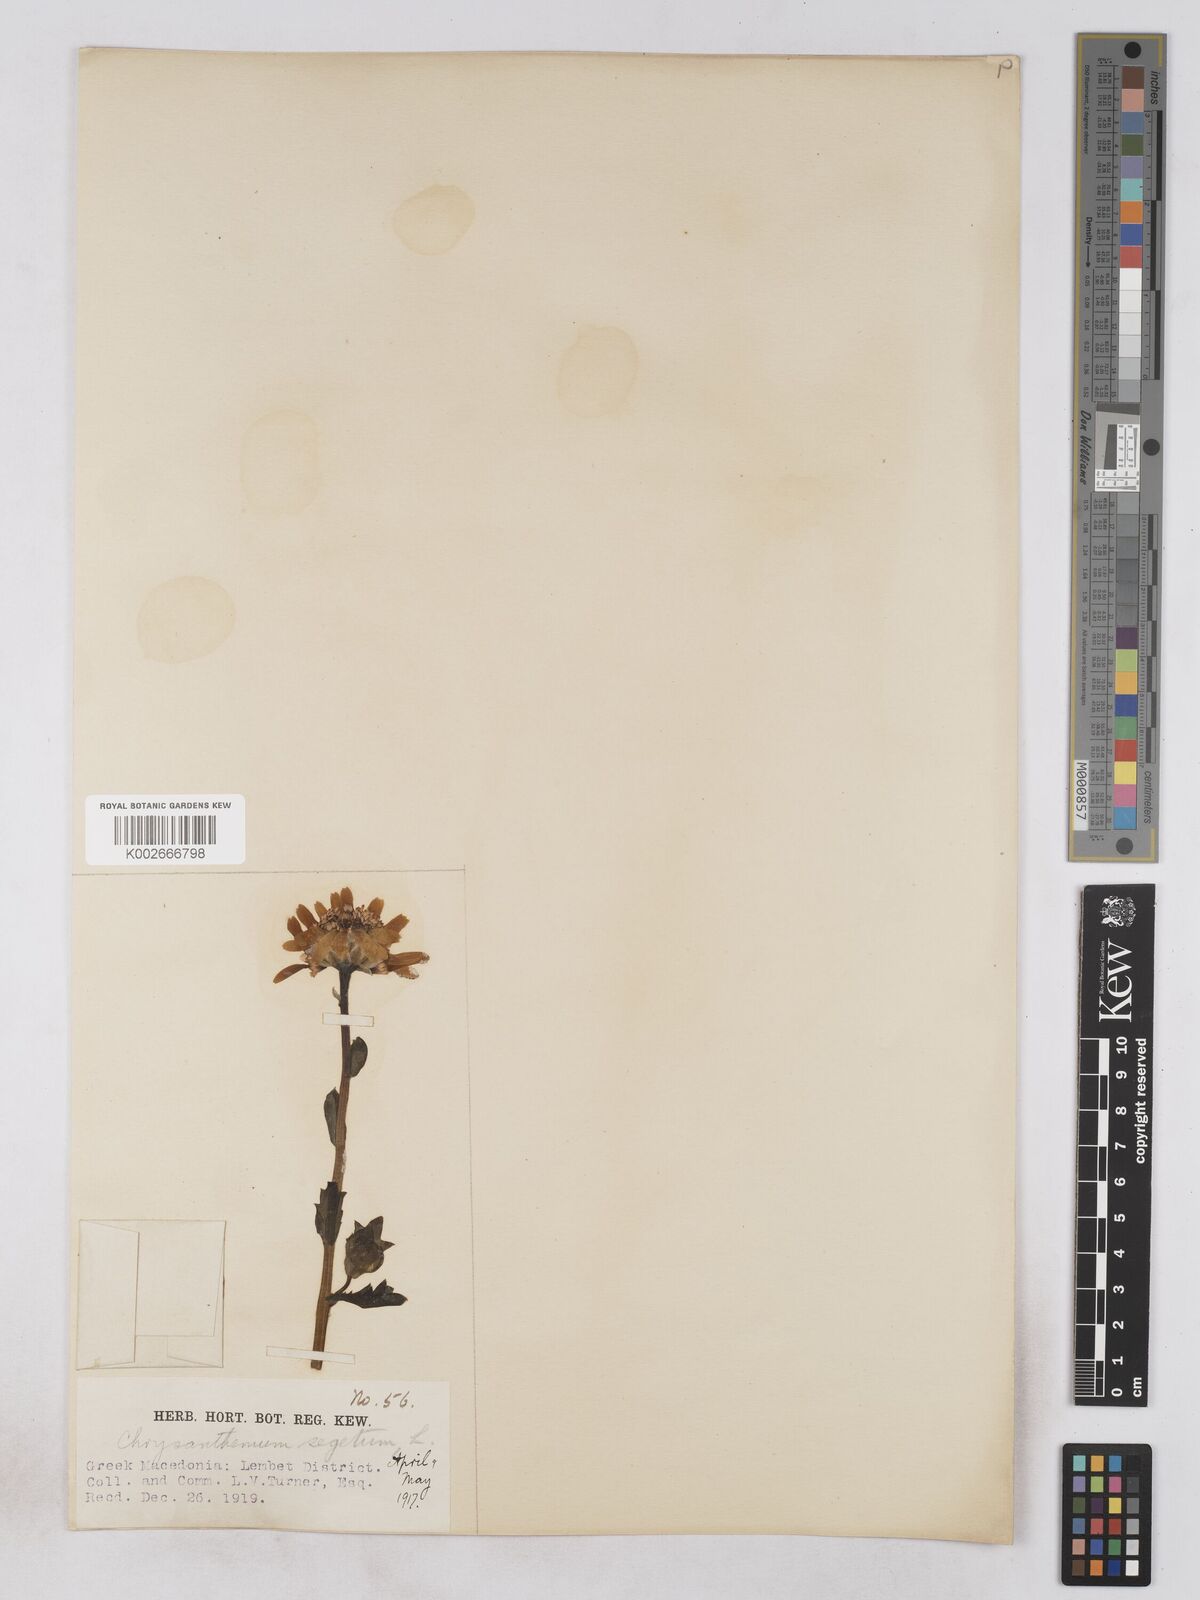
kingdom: Plantae
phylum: Tracheophyta
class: Magnoliopsida
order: Asterales
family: Asteraceae
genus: Glebionis
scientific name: Glebionis segetum
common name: Corndaisy
